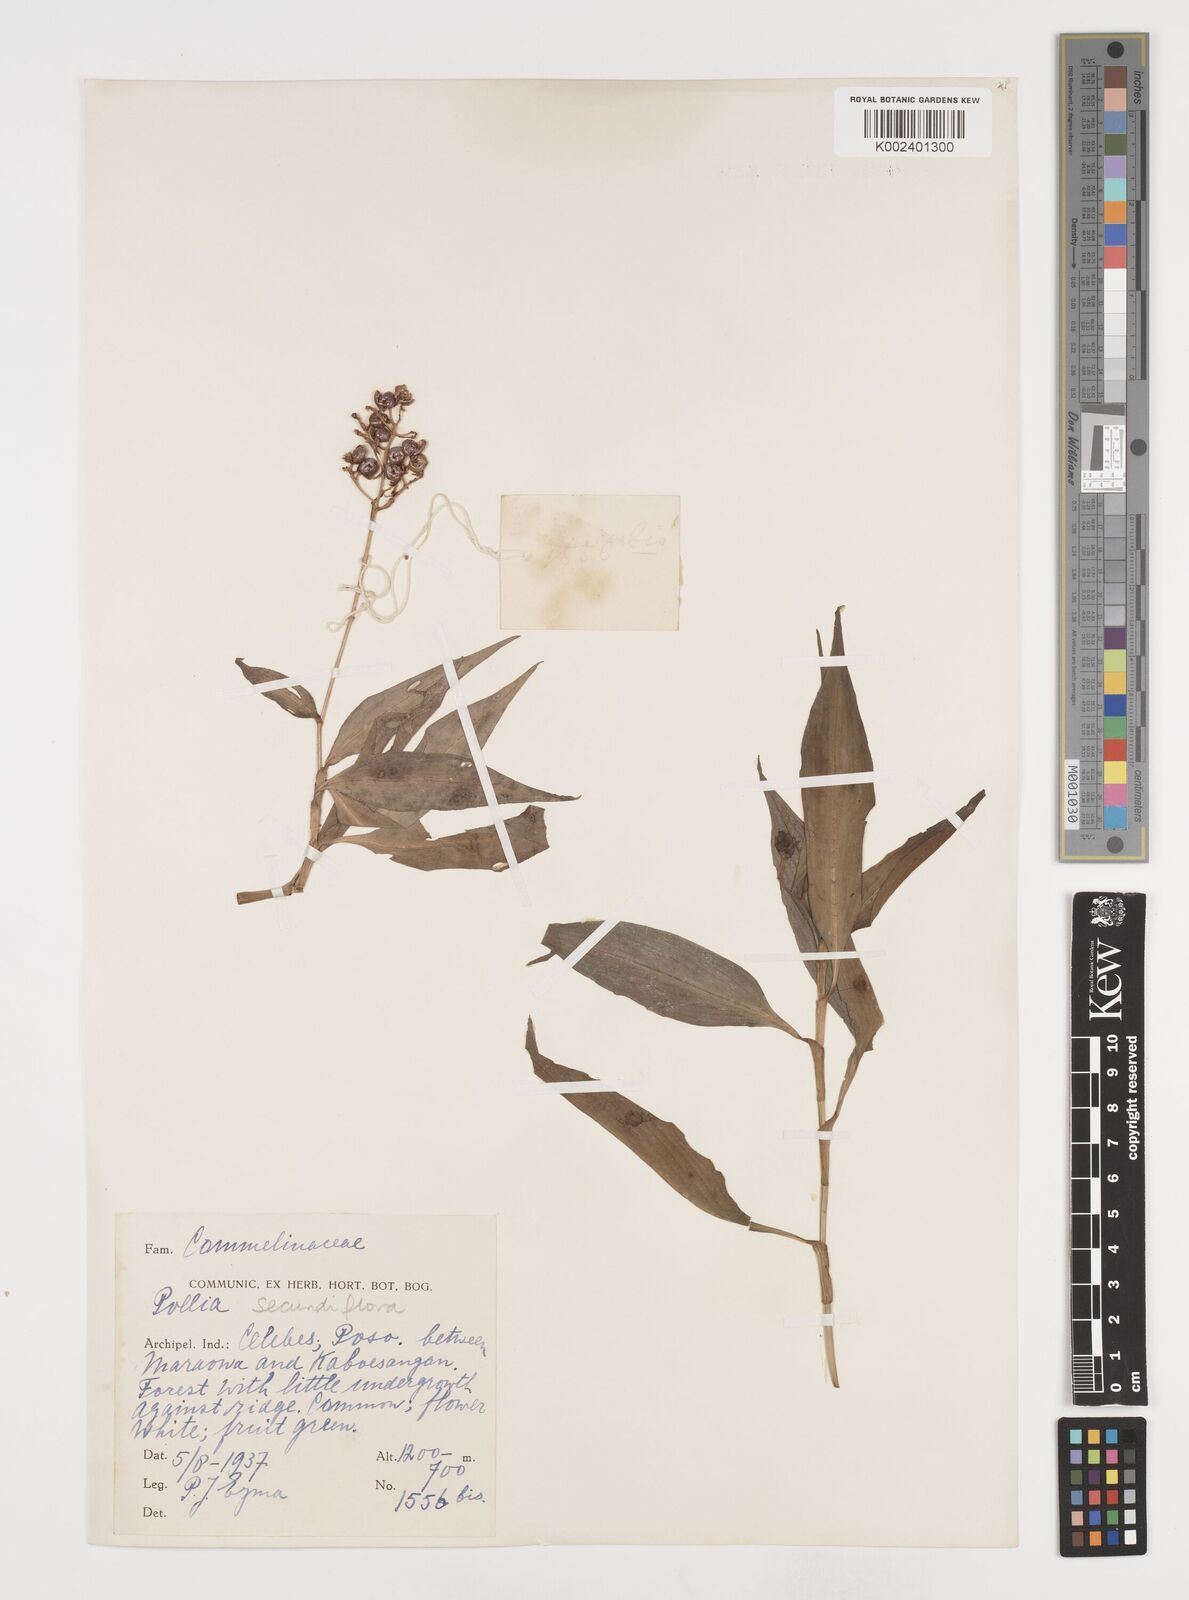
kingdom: Plantae
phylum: Tracheophyta
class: Liliopsida
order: Commelinales
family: Commelinaceae
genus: Pollia
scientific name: Pollia secundiflora
